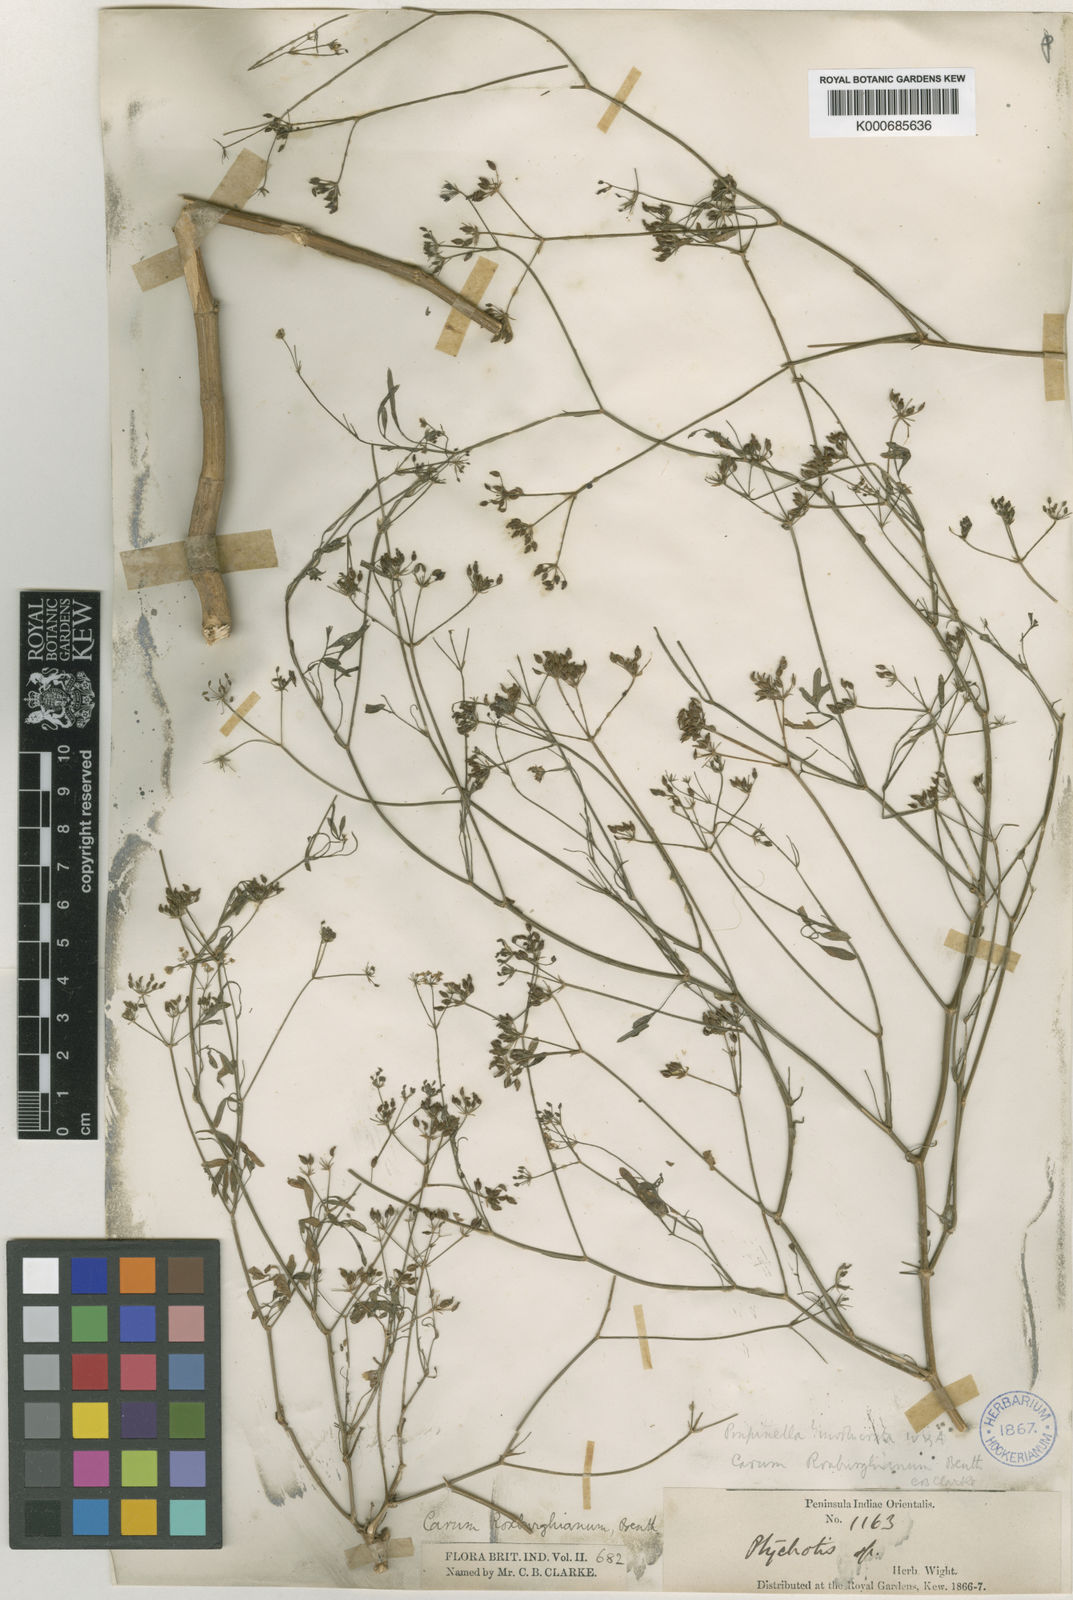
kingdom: Plantae
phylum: Tracheophyta
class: Magnoliopsida
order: Apiales
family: Apiaceae
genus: Psammogeton
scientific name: Psammogeton involucratum
